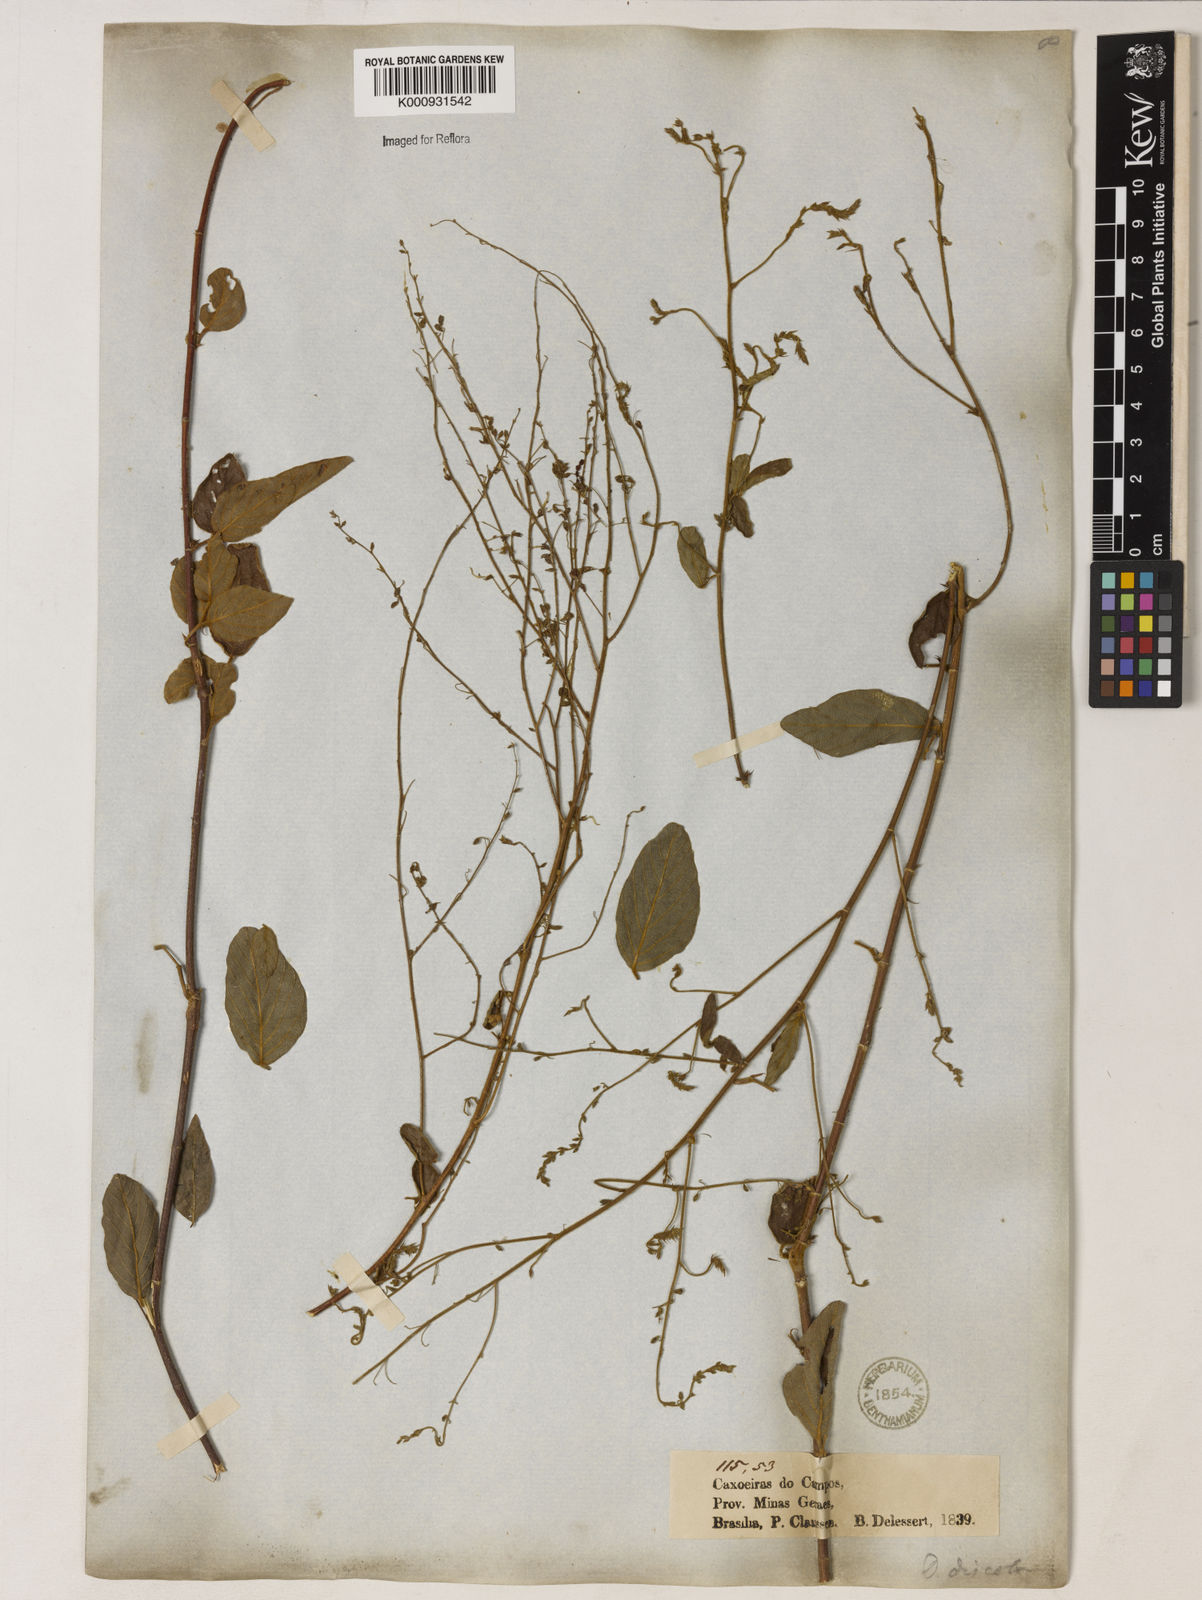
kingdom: Plantae
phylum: Tracheophyta
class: Magnoliopsida
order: Fabales
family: Fabaceae
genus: Desmodium
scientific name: Desmodium subsecundum
